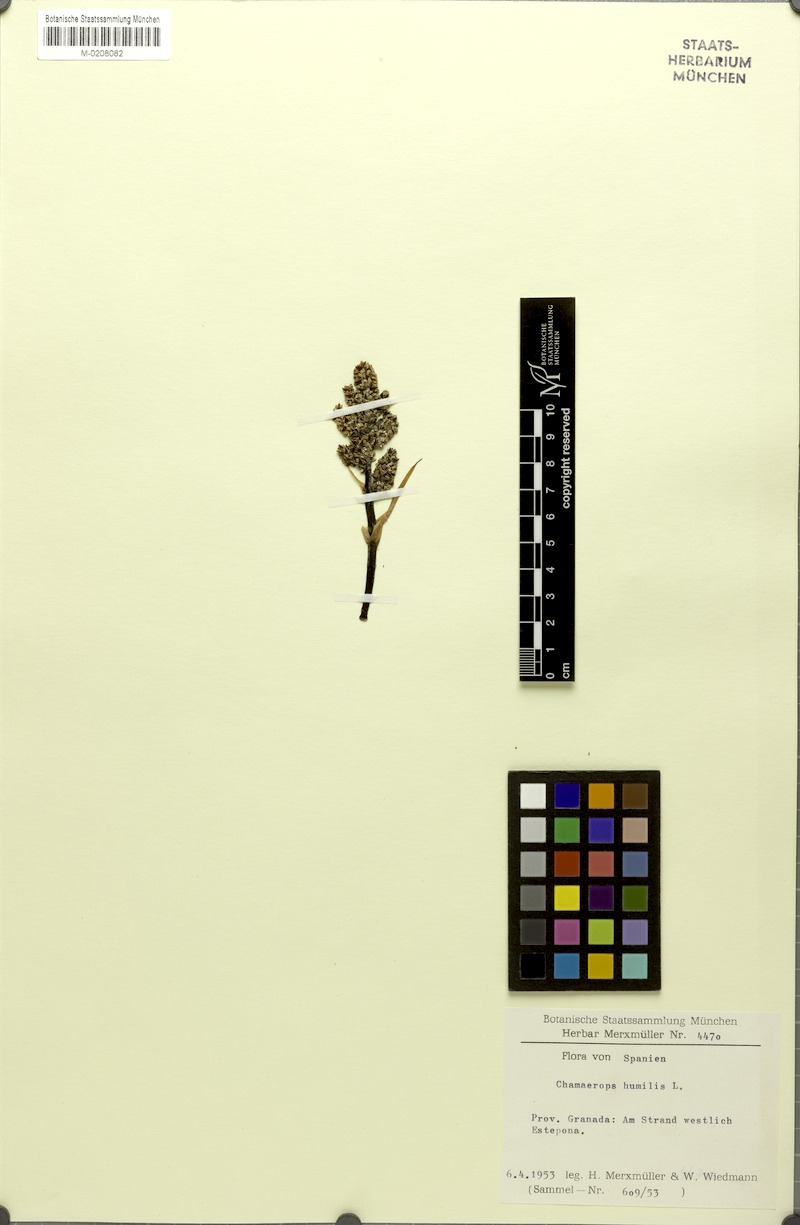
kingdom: Plantae
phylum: Tracheophyta
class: Liliopsida
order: Arecales
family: Arecaceae
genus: Chamaerops
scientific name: Chamaerops humilis
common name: Dwarf fan palm
